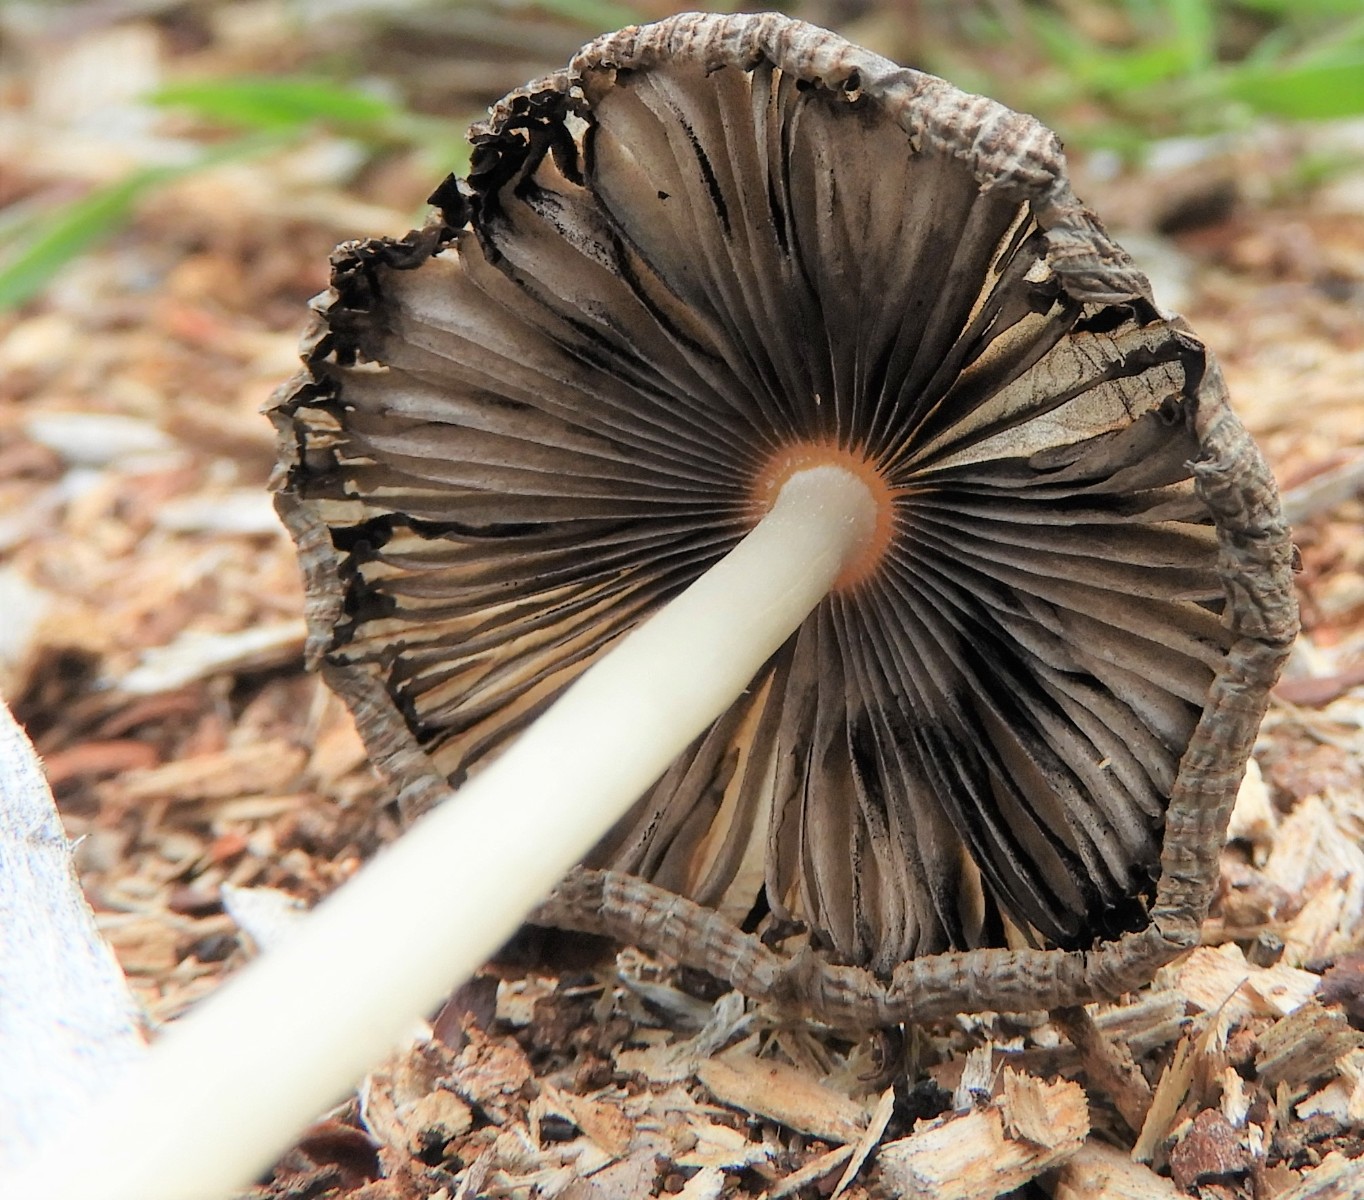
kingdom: Fungi
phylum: Basidiomycota
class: Agaricomycetes
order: Agaricales
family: Psathyrellaceae
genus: Parasola
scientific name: Parasola
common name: hjulhat
